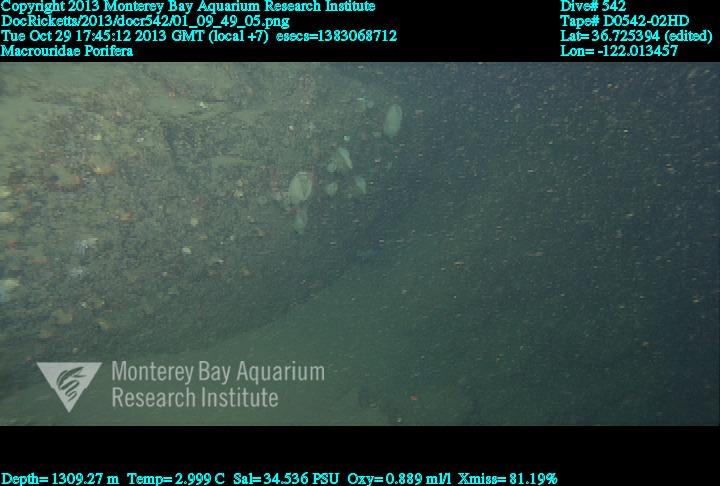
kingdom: Animalia
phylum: Porifera
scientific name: Porifera
